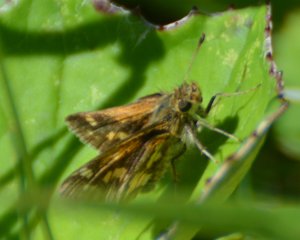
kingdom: Animalia
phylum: Arthropoda
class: Insecta
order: Lepidoptera
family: Hesperiidae
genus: Polites
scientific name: Polites coras
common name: Peck's Skipper
